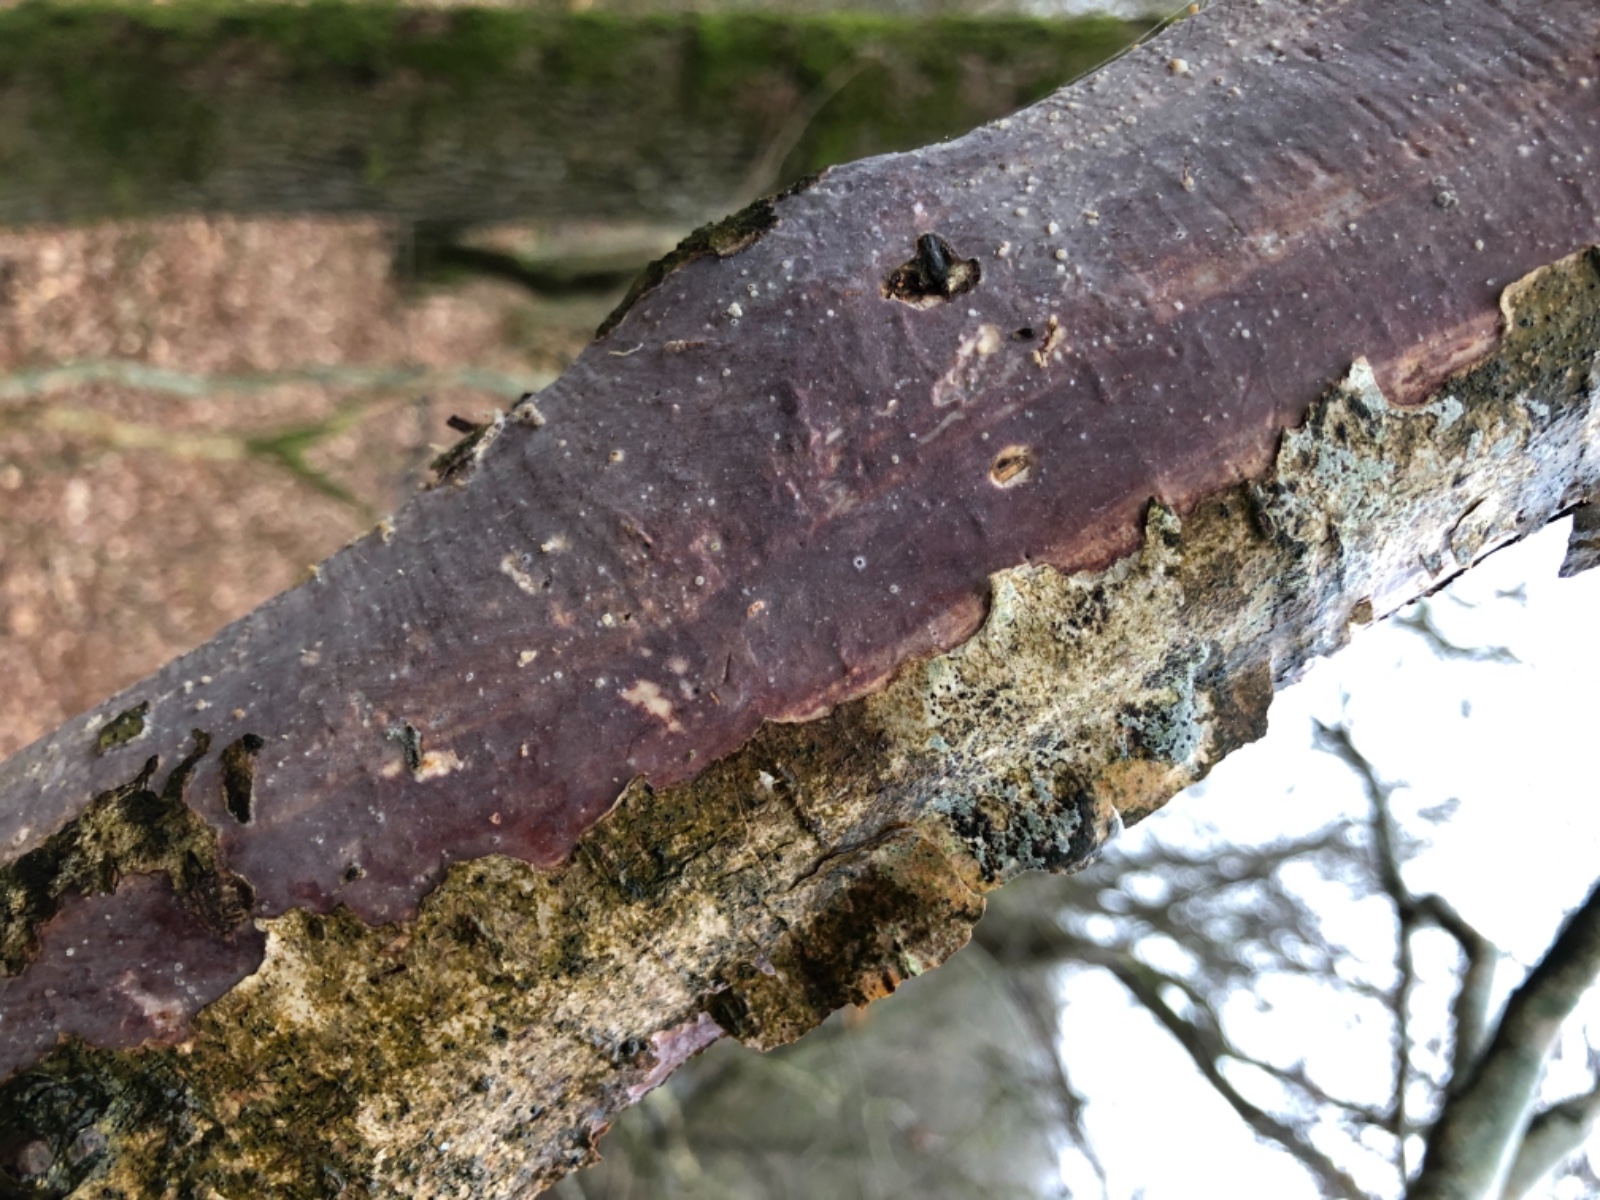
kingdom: Fungi
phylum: Basidiomycota
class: Agaricomycetes
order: Corticiales
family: Vuilleminiaceae
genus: Vuilleminia
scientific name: Vuilleminia coryli
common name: hassel-barksprænger
